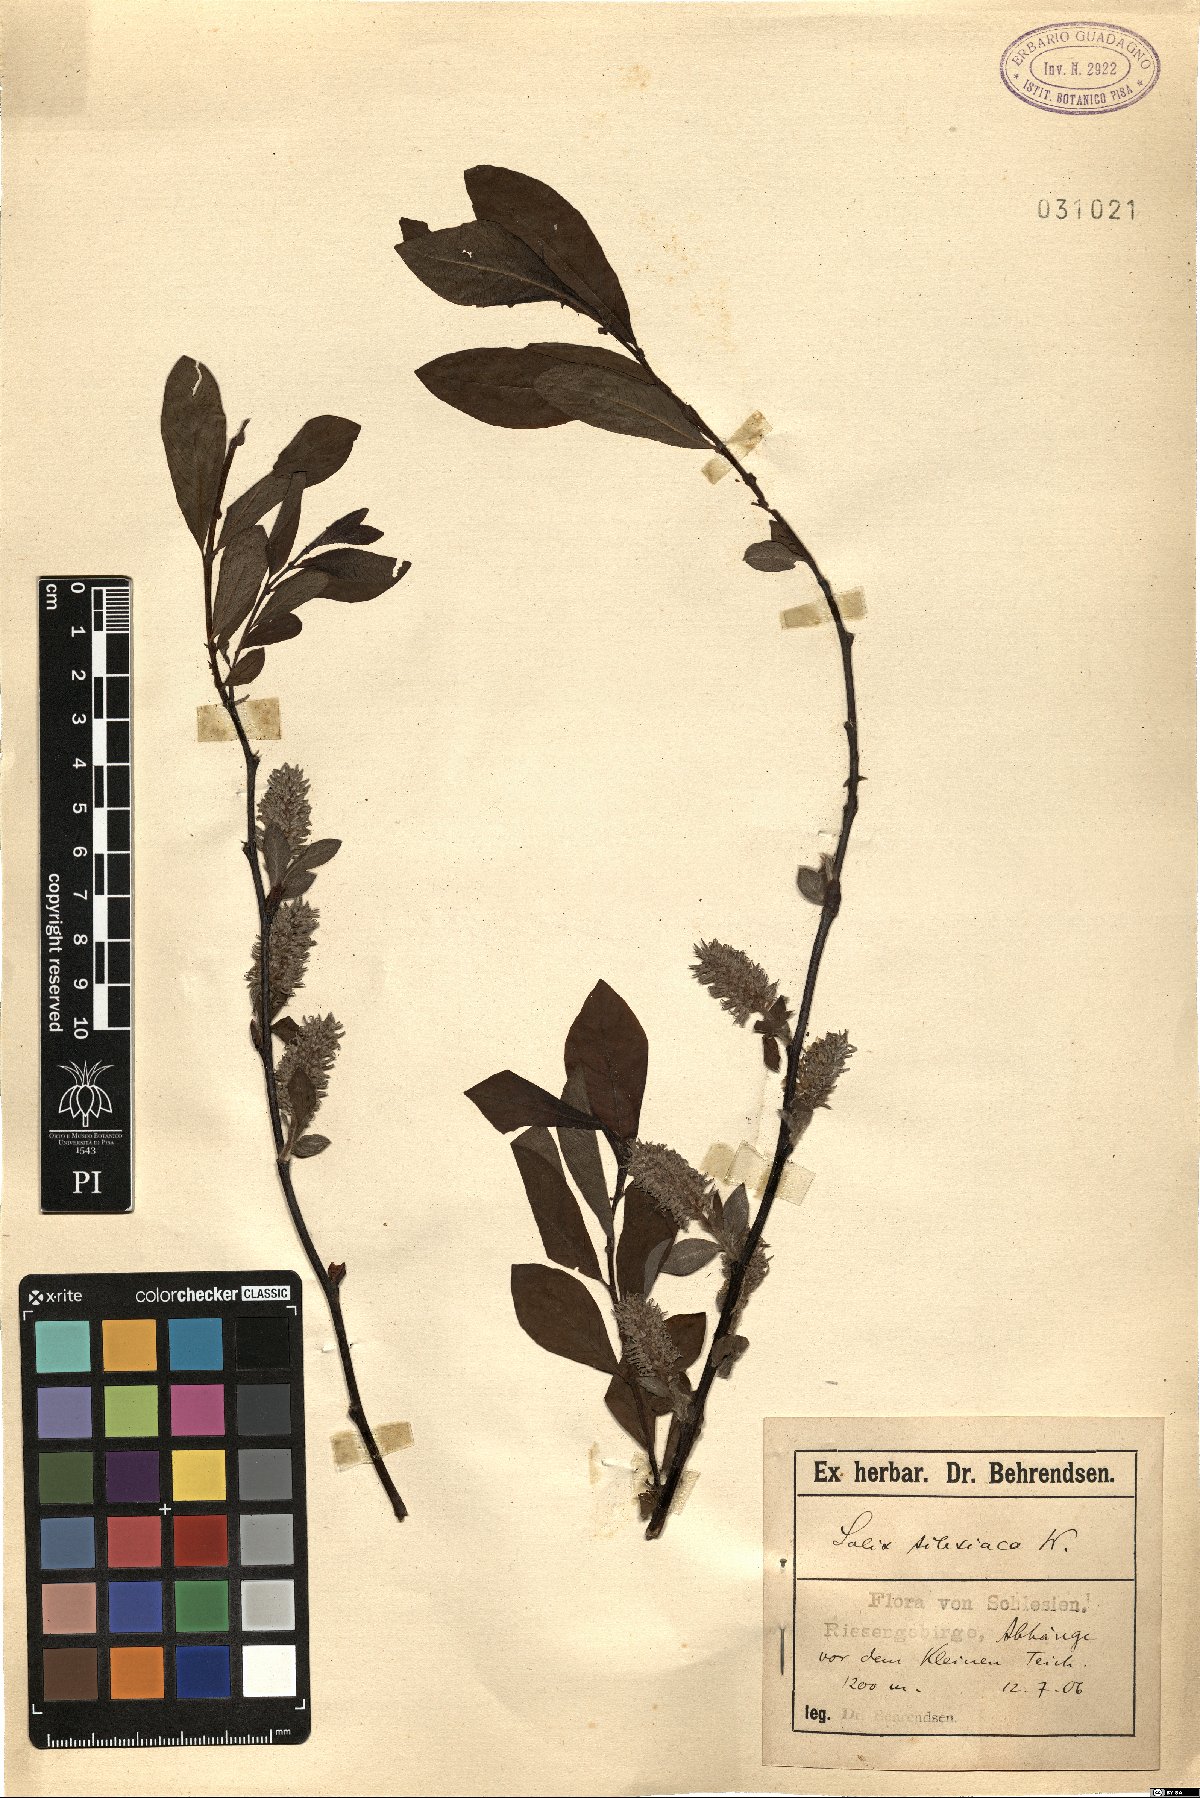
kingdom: Plantae
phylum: Tracheophyta
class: Magnoliopsida
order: Malpighiales
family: Salicaceae
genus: Salix
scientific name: Salix silesiaca
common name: Silesian willow
